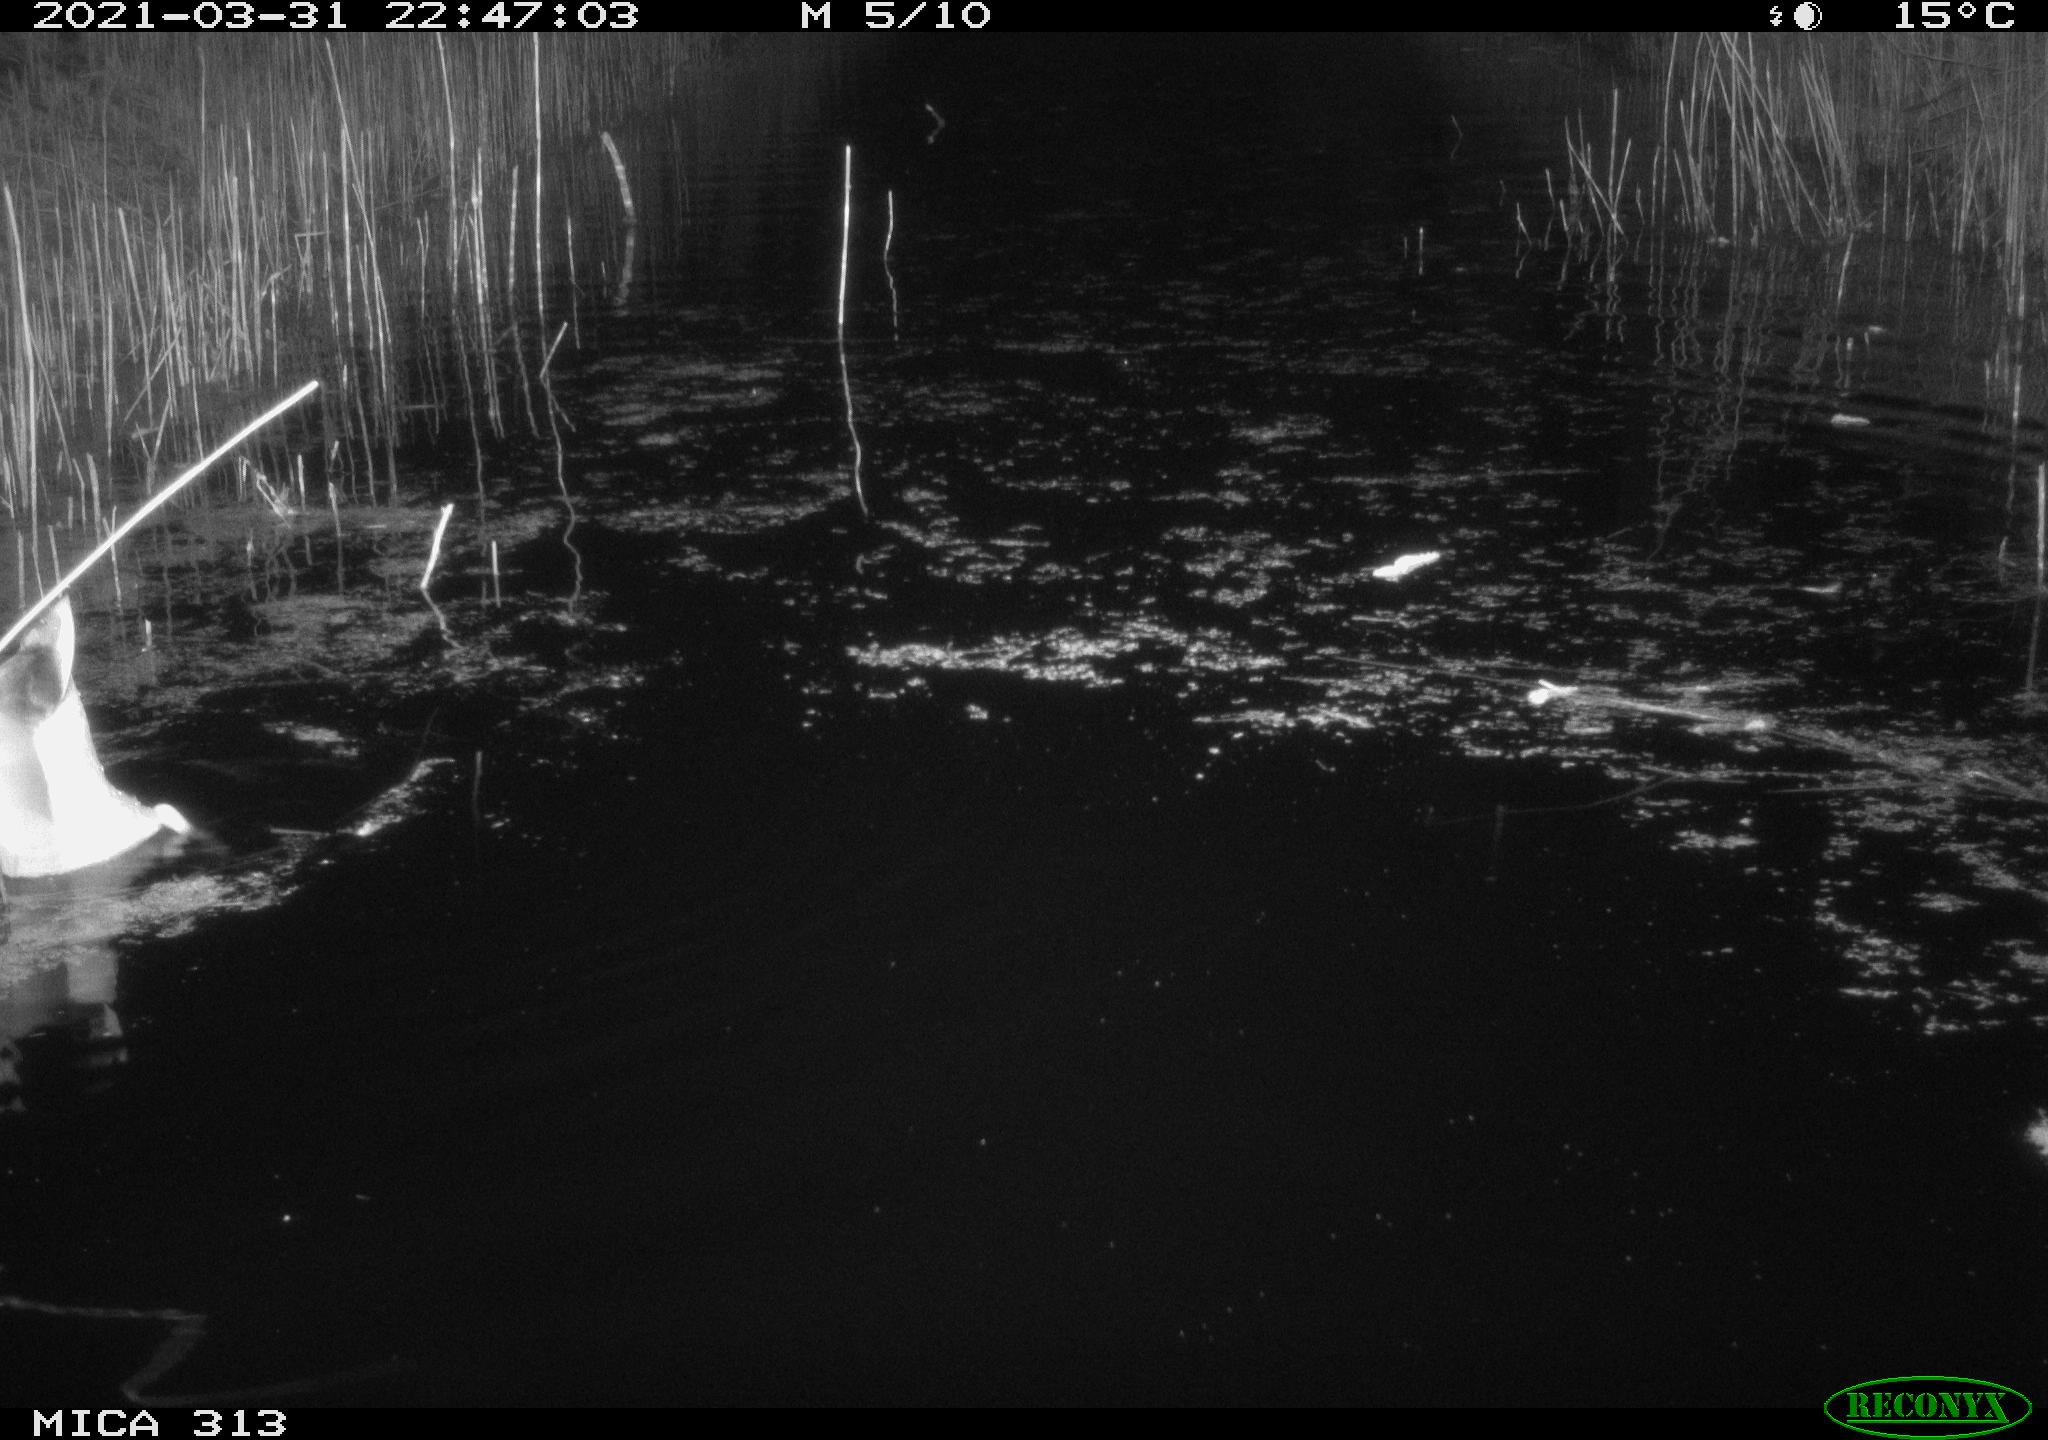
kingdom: Animalia
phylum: Chordata
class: Aves
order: Anseriformes
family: Anatidae
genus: Anas
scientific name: Anas platyrhynchos
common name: Mallard
